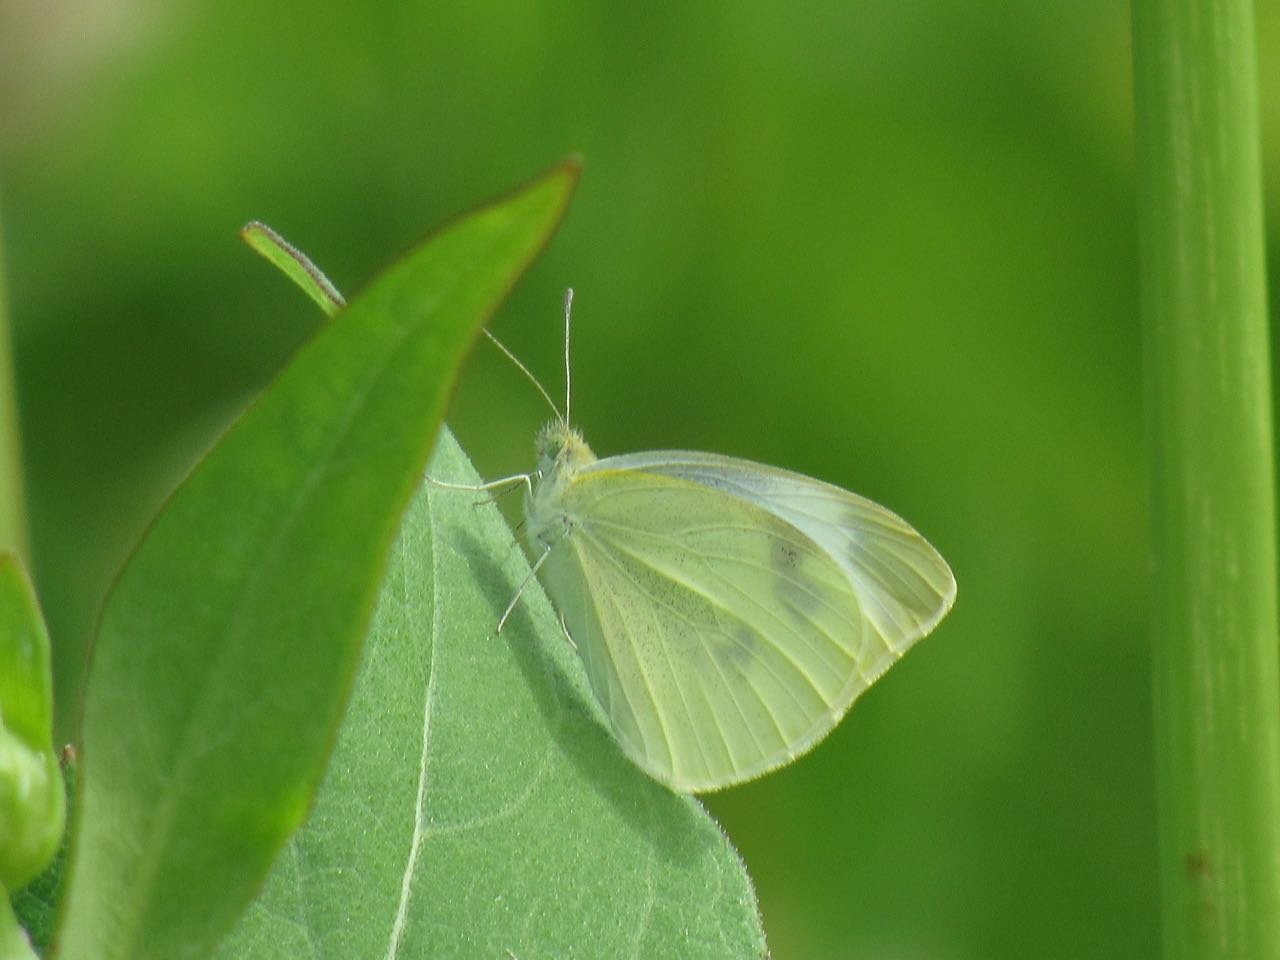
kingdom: Animalia
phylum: Arthropoda
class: Insecta
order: Lepidoptera
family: Pieridae
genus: Pieris
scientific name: Pieris rapae
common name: Cabbage White
